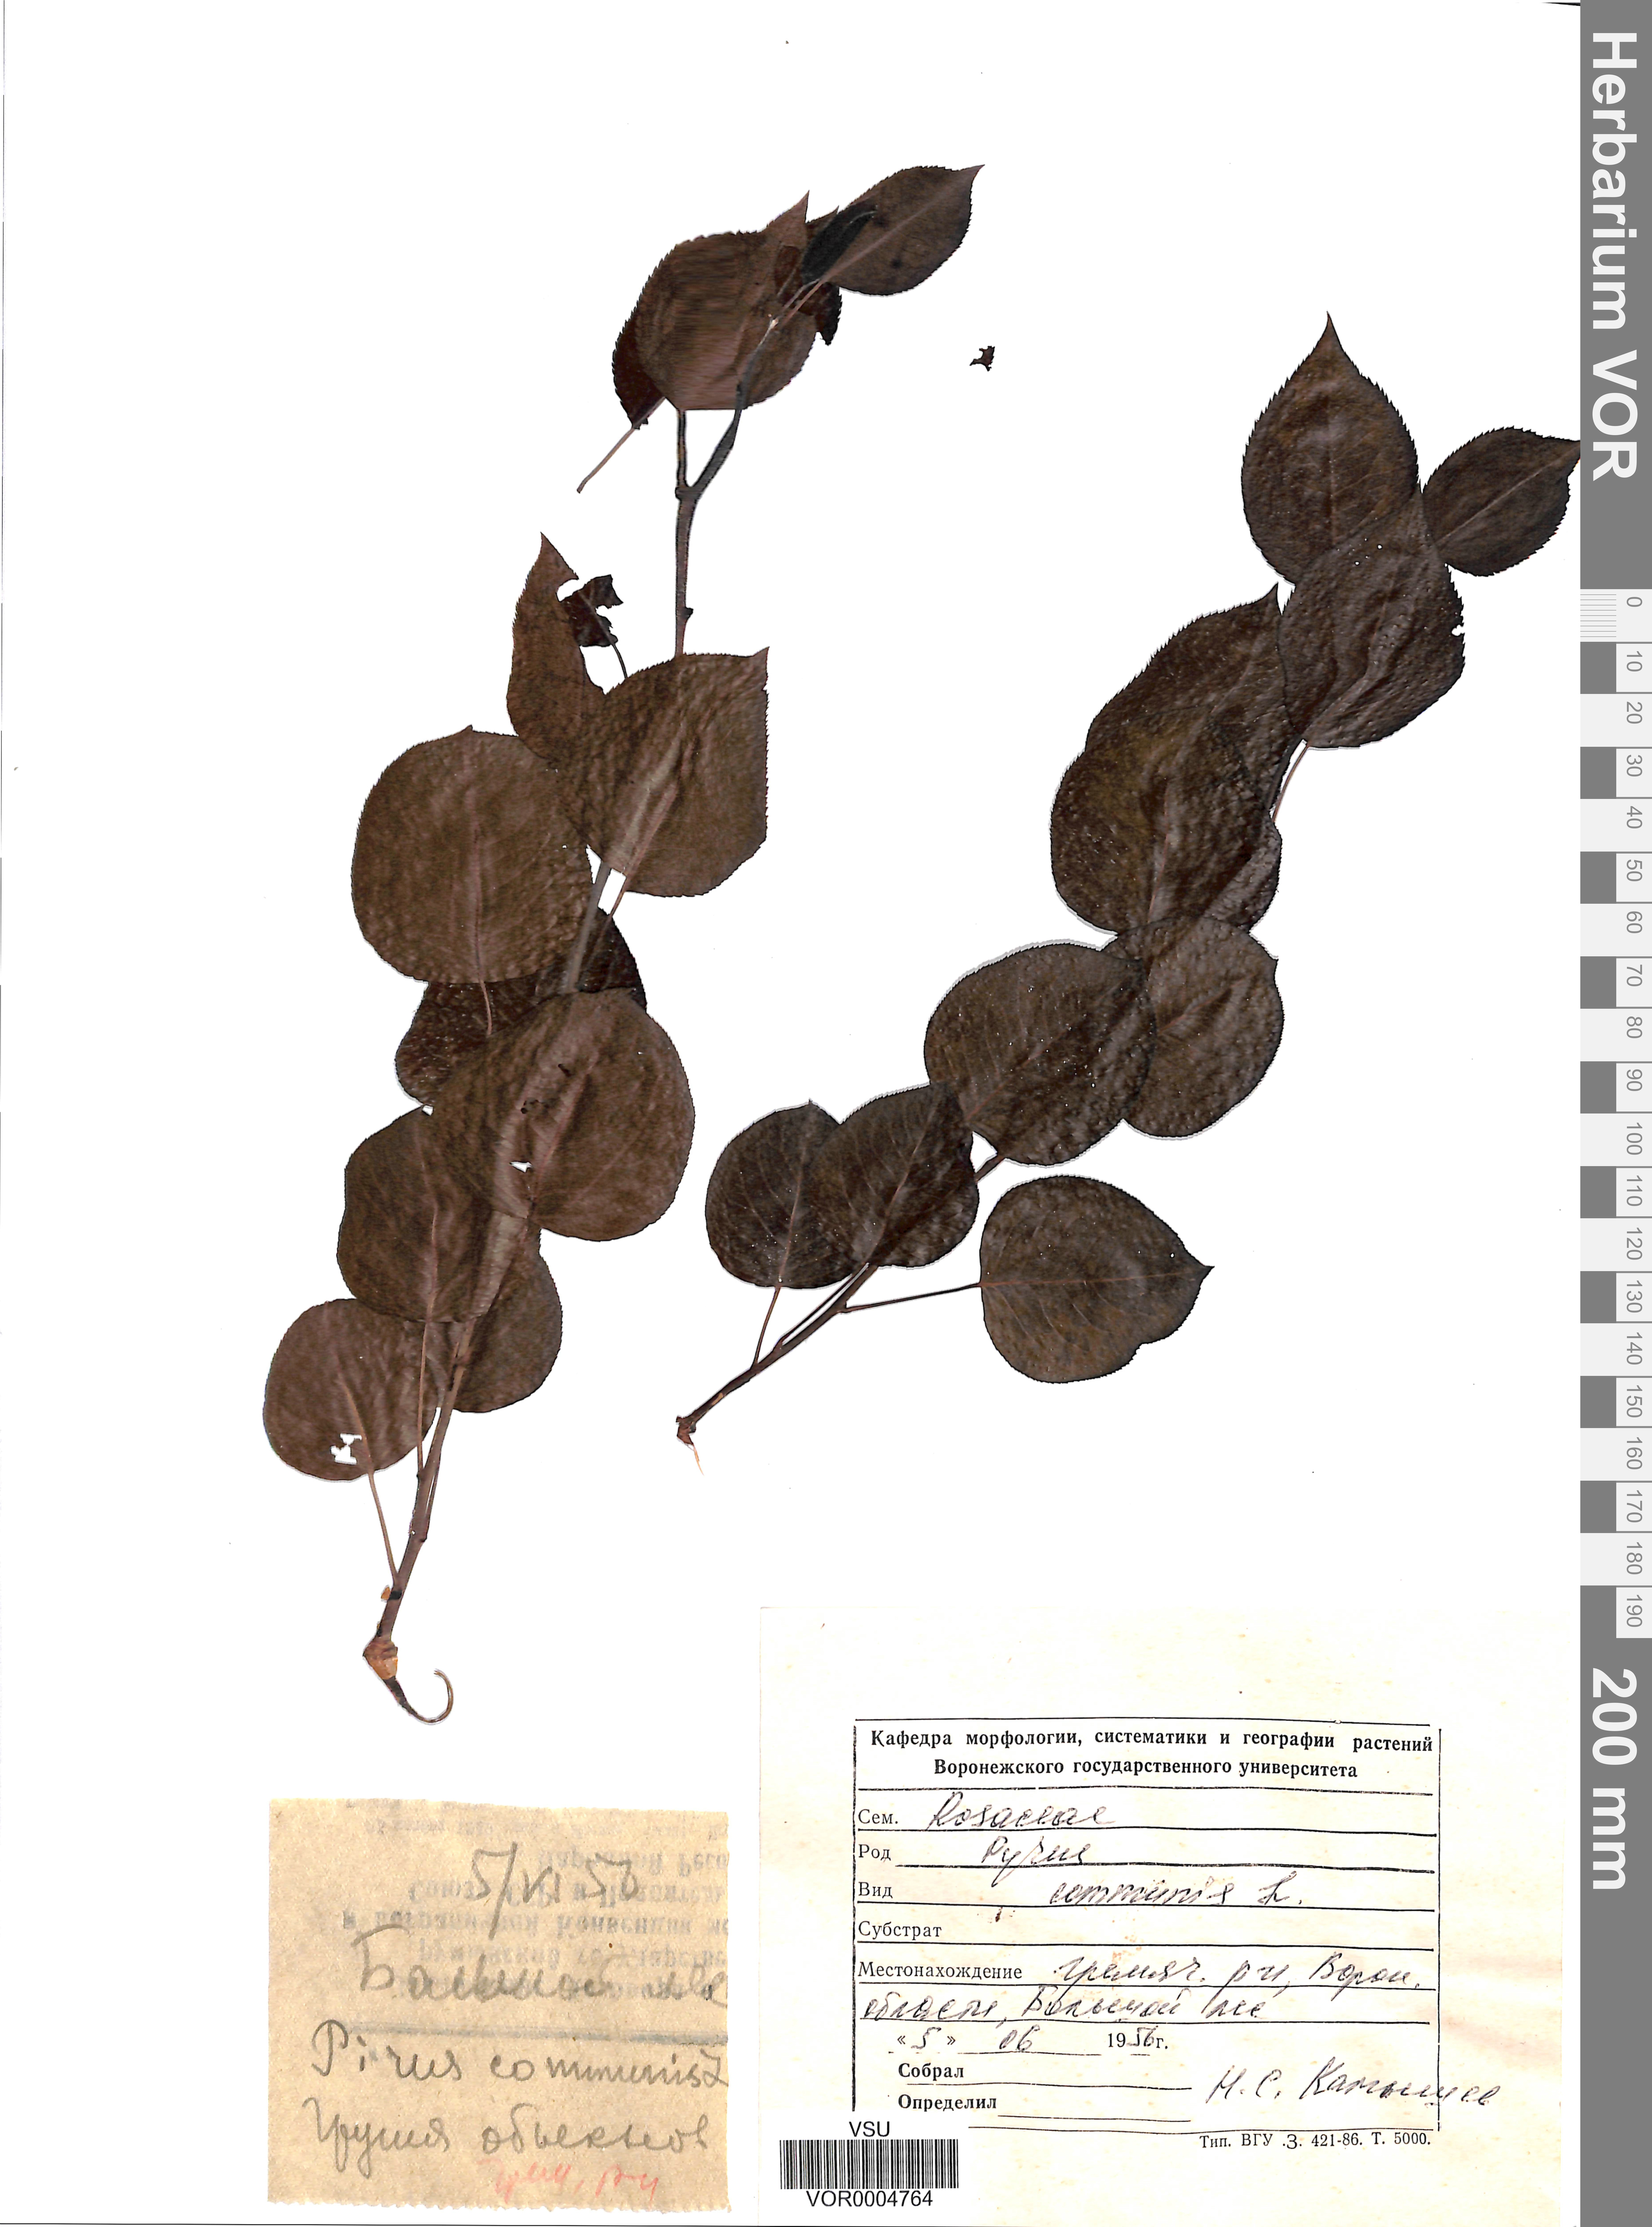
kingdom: Plantae
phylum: Tracheophyta
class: Magnoliopsida
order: Rosales
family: Rosaceae
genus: Pyrus
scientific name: Pyrus communis
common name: Pear
